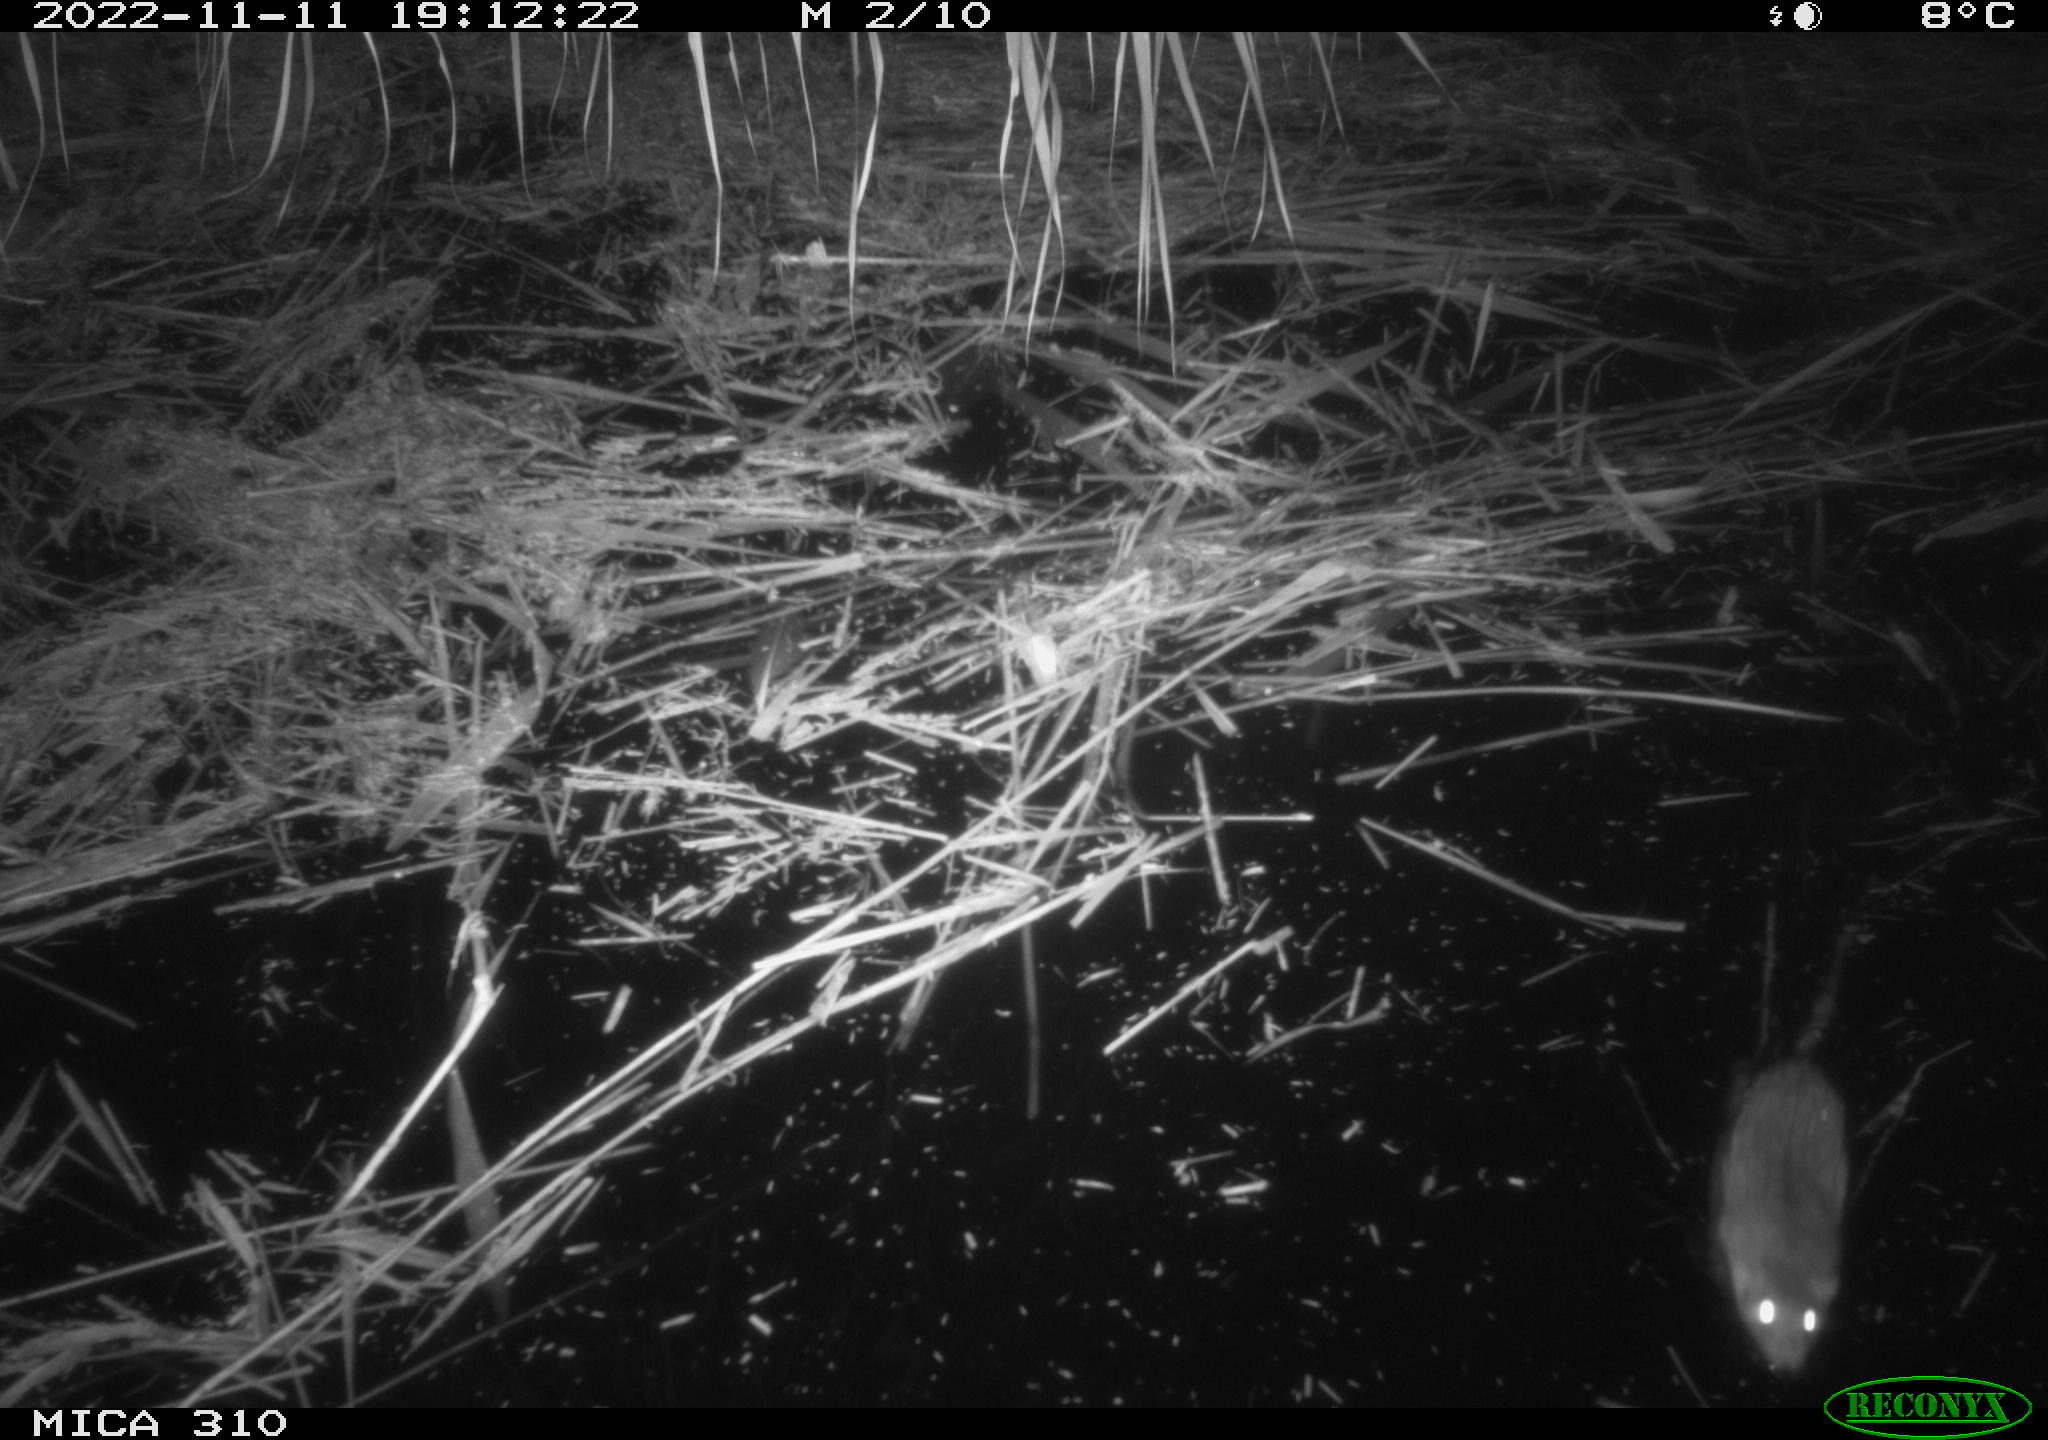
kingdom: Animalia
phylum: Chordata
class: Mammalia
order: Rodentia
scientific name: Rodentia
